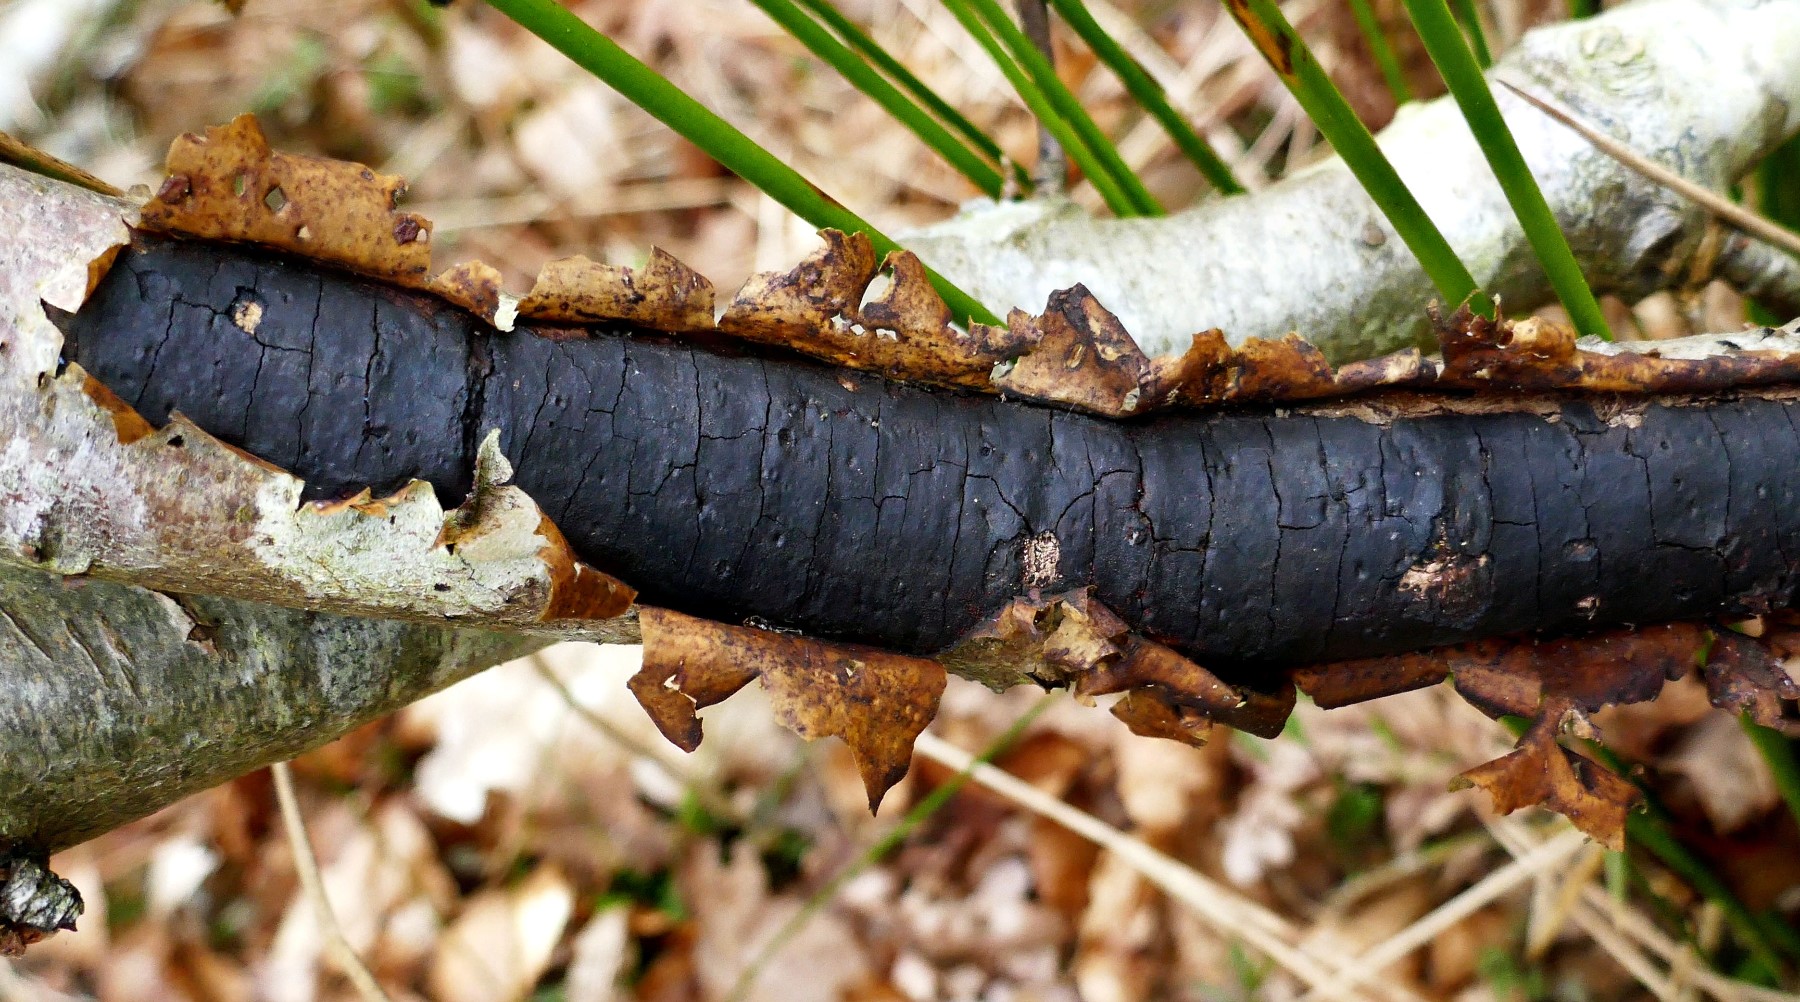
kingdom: Fungi
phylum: Ascomycota
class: Sordariomycetes
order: Xylariales
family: Diatrypaceae
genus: Diatrype
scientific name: Diatrype stigma
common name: udbredt kulskorpe
